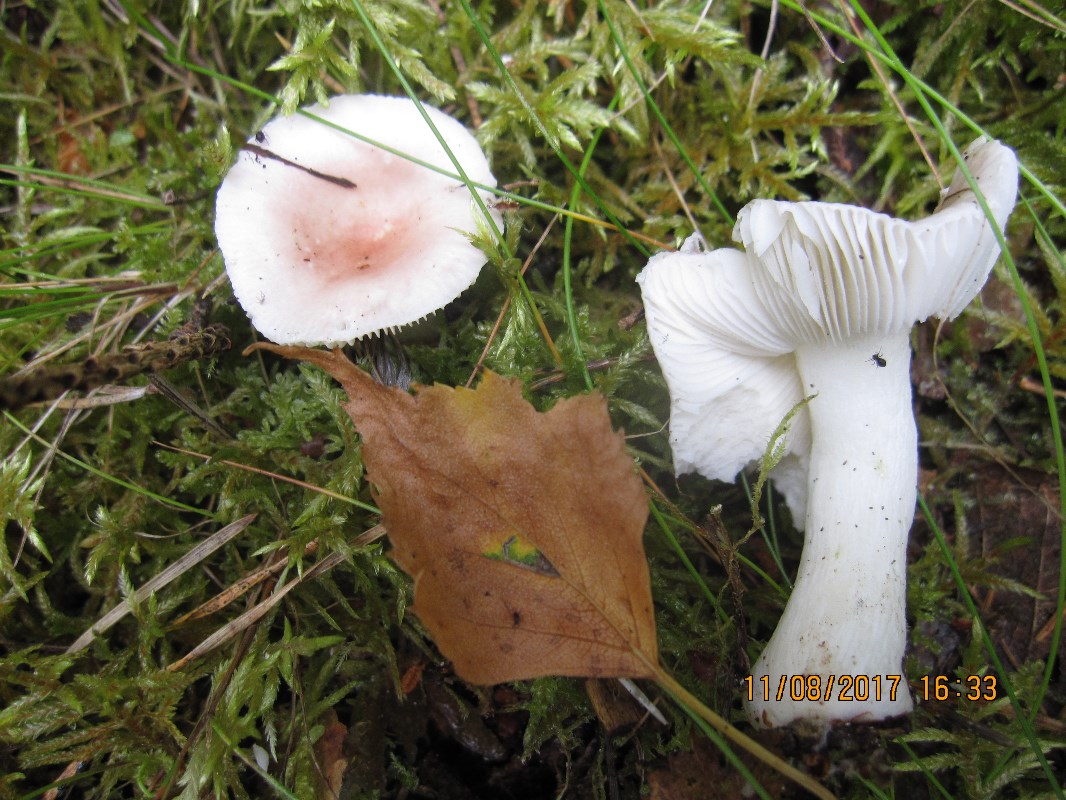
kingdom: Fungi
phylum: Basidiomycota
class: Agaricomycetes
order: Russulales
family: Russulaceae
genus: Russula
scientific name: Russula betularum
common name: bleg gift-skørhat
